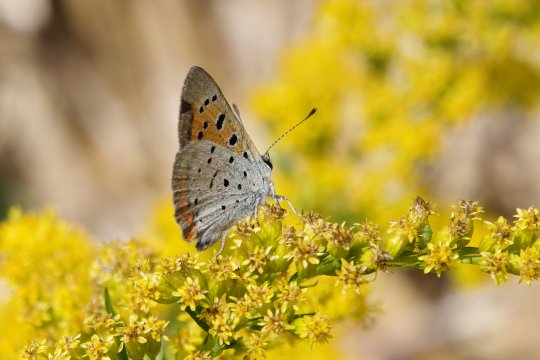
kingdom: Animalia
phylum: Arthropoda
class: Insecta
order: Lepidoptera
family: Lycaenidae
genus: Lycaena
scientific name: Lycaena phlaeas
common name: American Copper
